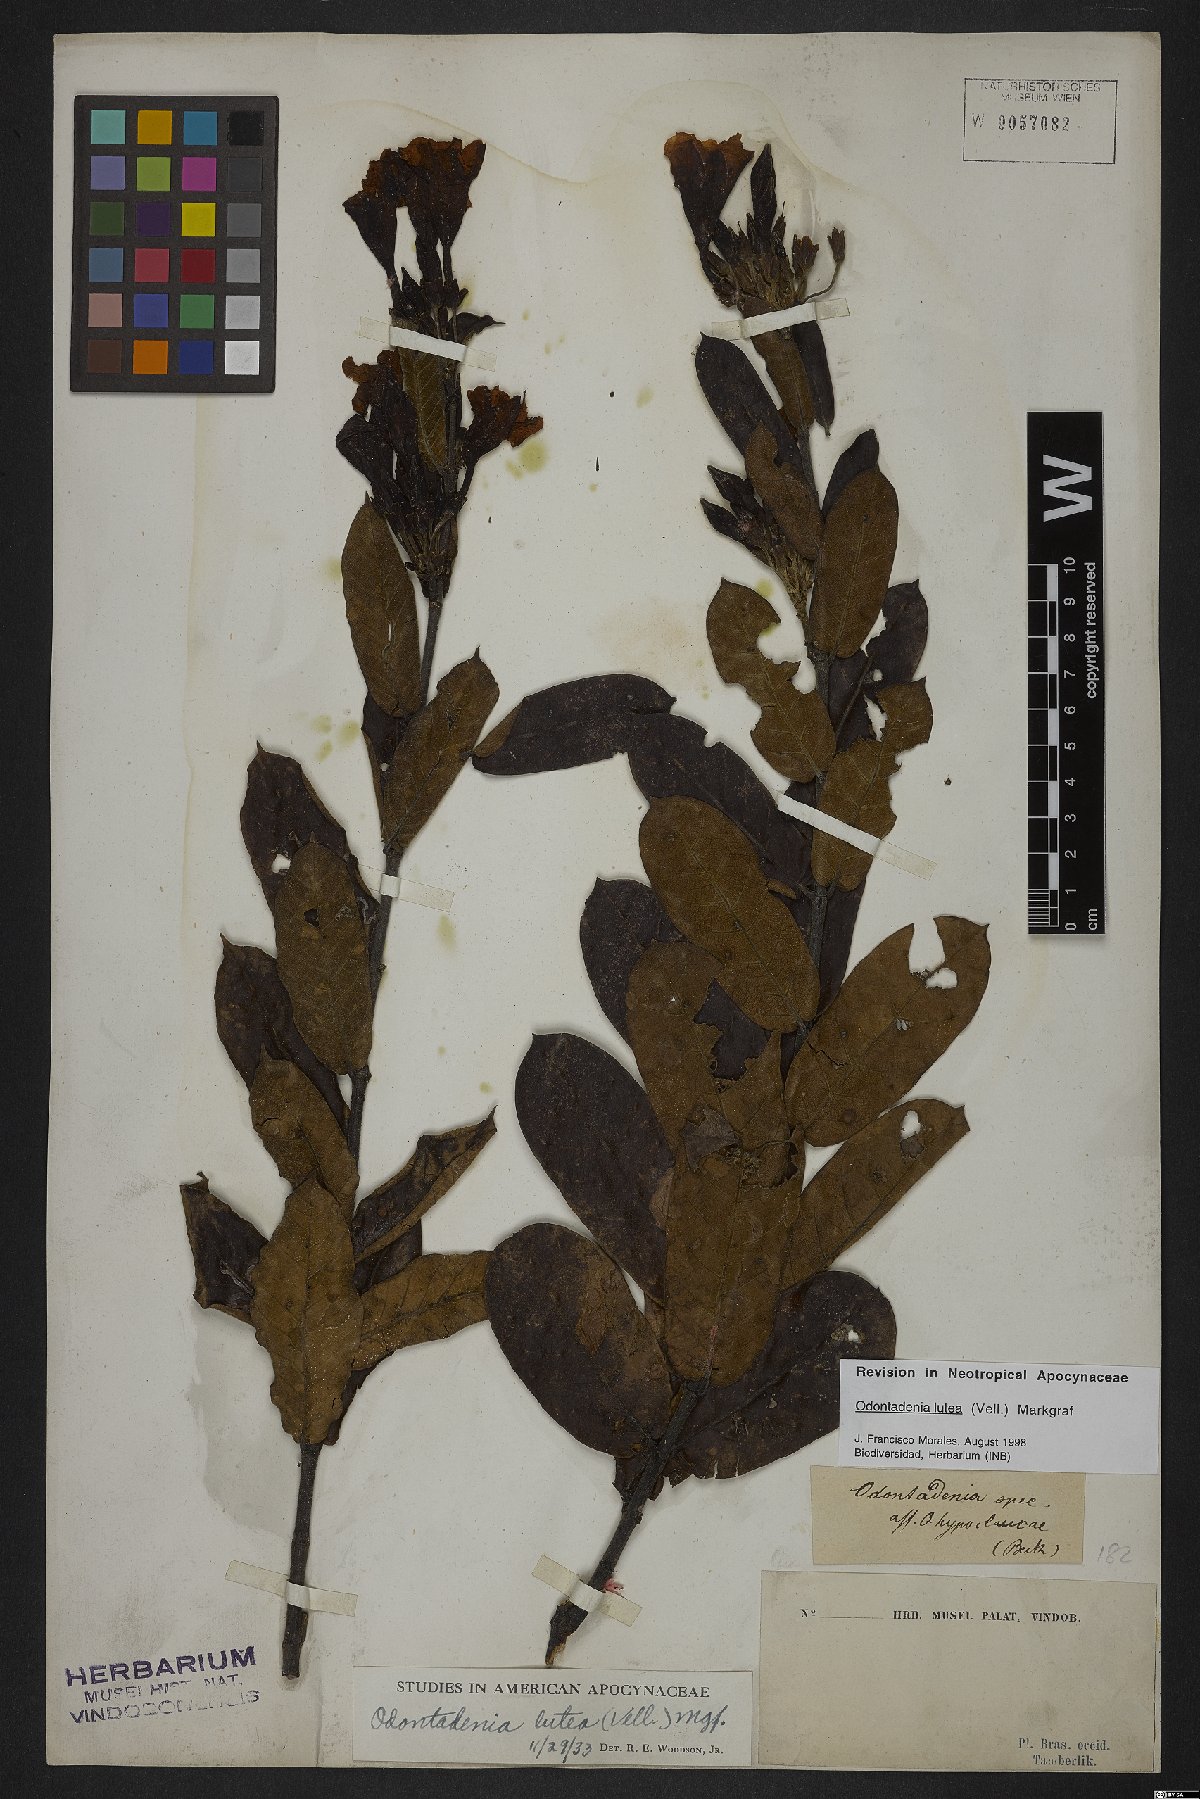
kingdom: Plantae
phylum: Tracheophyta
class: Magnoliopsida
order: Gentianales
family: Apocynaceae
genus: Odontadenia
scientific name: Odontadenia lutea
